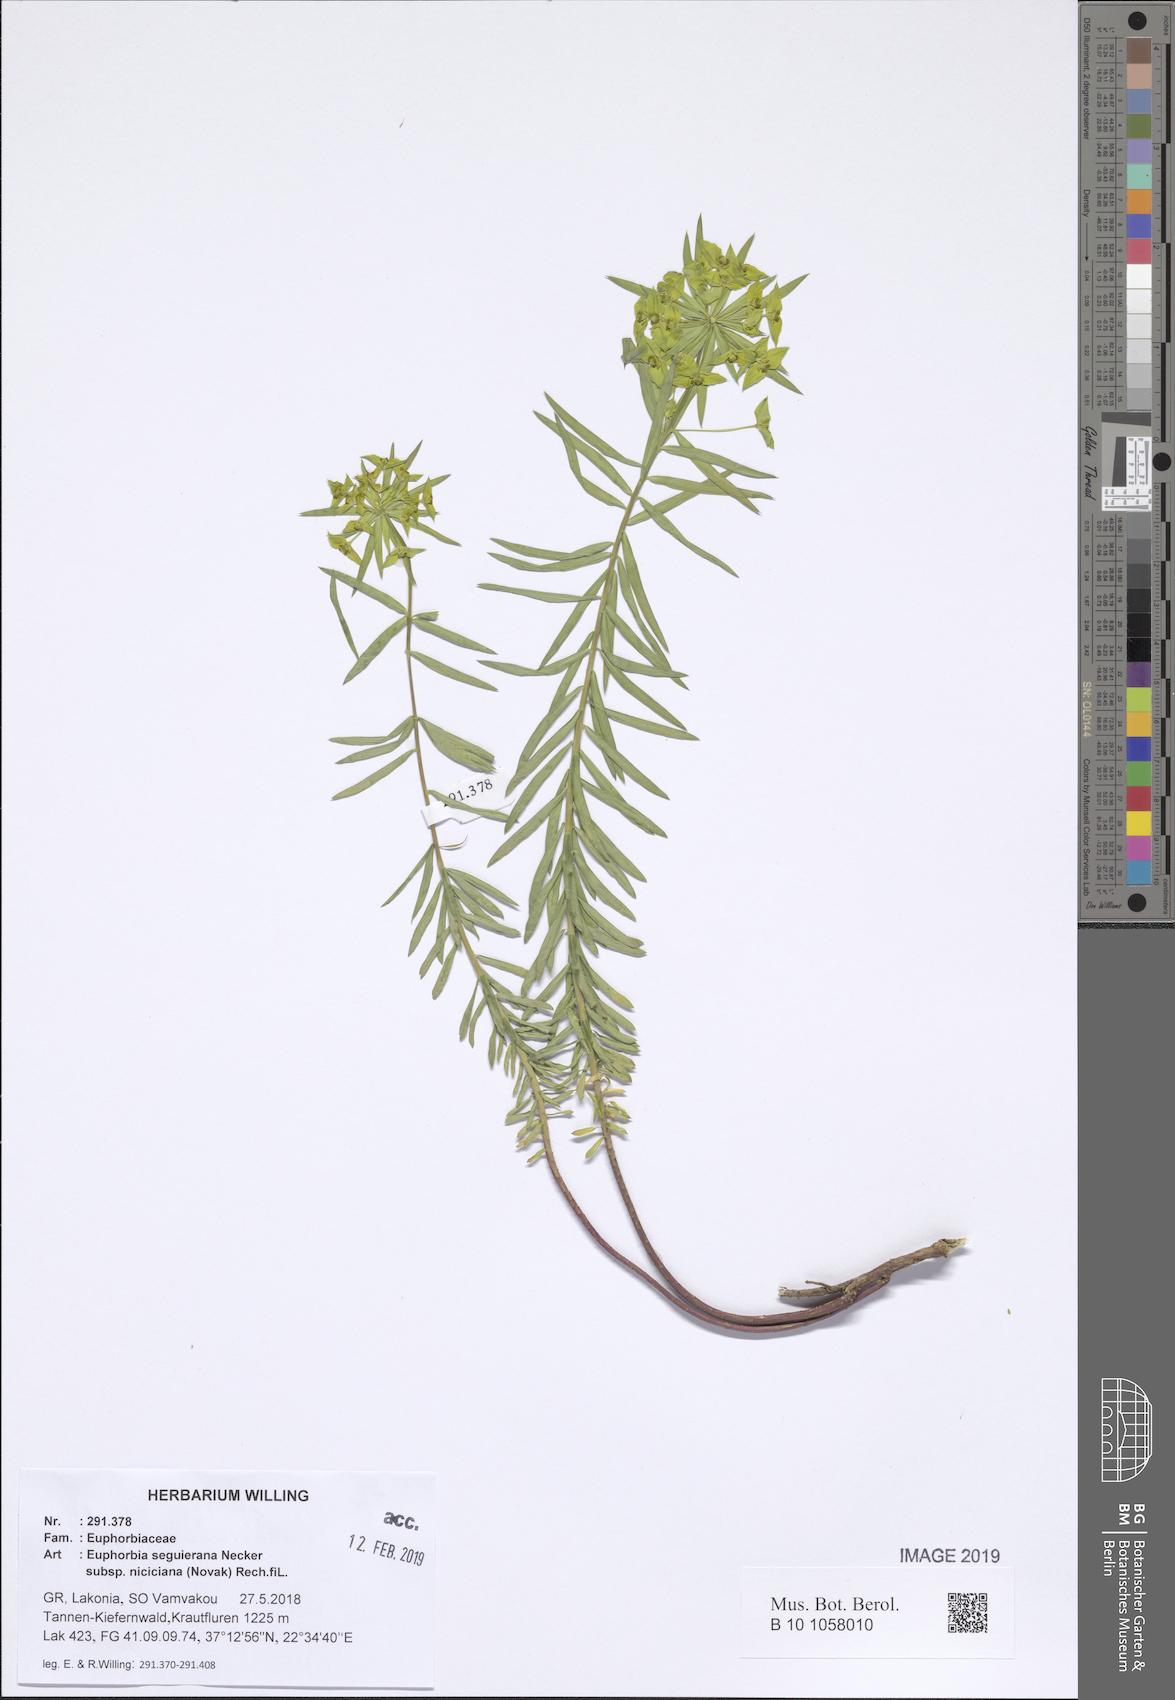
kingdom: Plantae
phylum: Tracheophyta
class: Magnoliopsida
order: Malpighiales
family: Euphorbiaceae
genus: Euphorbia
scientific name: Euphorbia seguieriana
